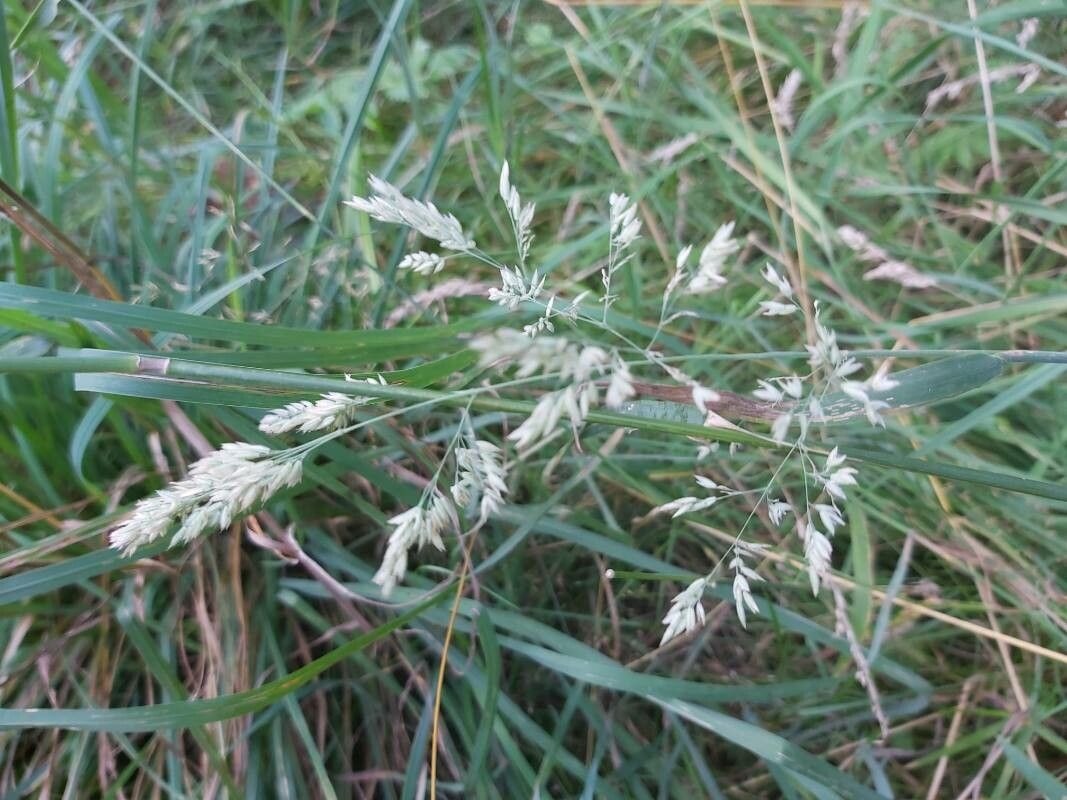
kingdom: Plantae
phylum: Tracheophyta
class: Liliopsida
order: Poales
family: Poaceae
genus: Holcus
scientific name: Holcus lanatus
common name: Fløjlsgræs
